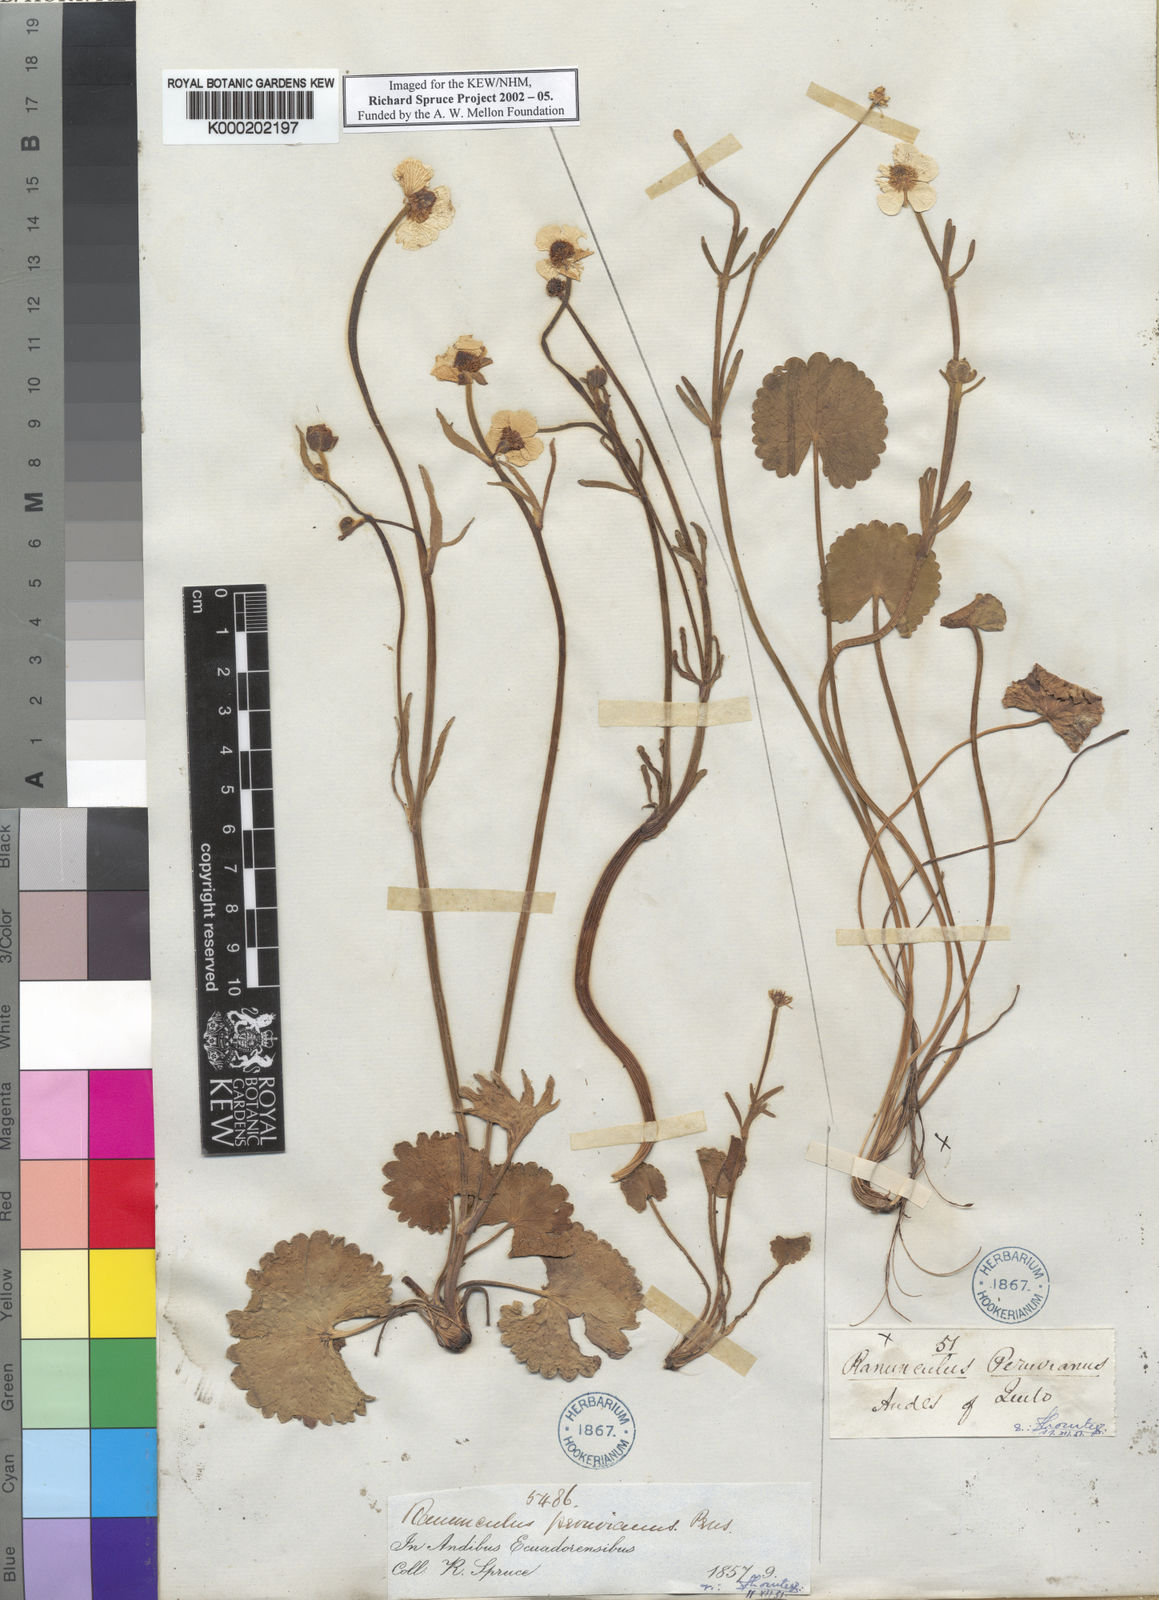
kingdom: Plantae
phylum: Tracheophyta
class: Magnoliopsida
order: Ranunculales
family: Ranunculaceae
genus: Ranunculus
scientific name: Ranunculus peruvianus
